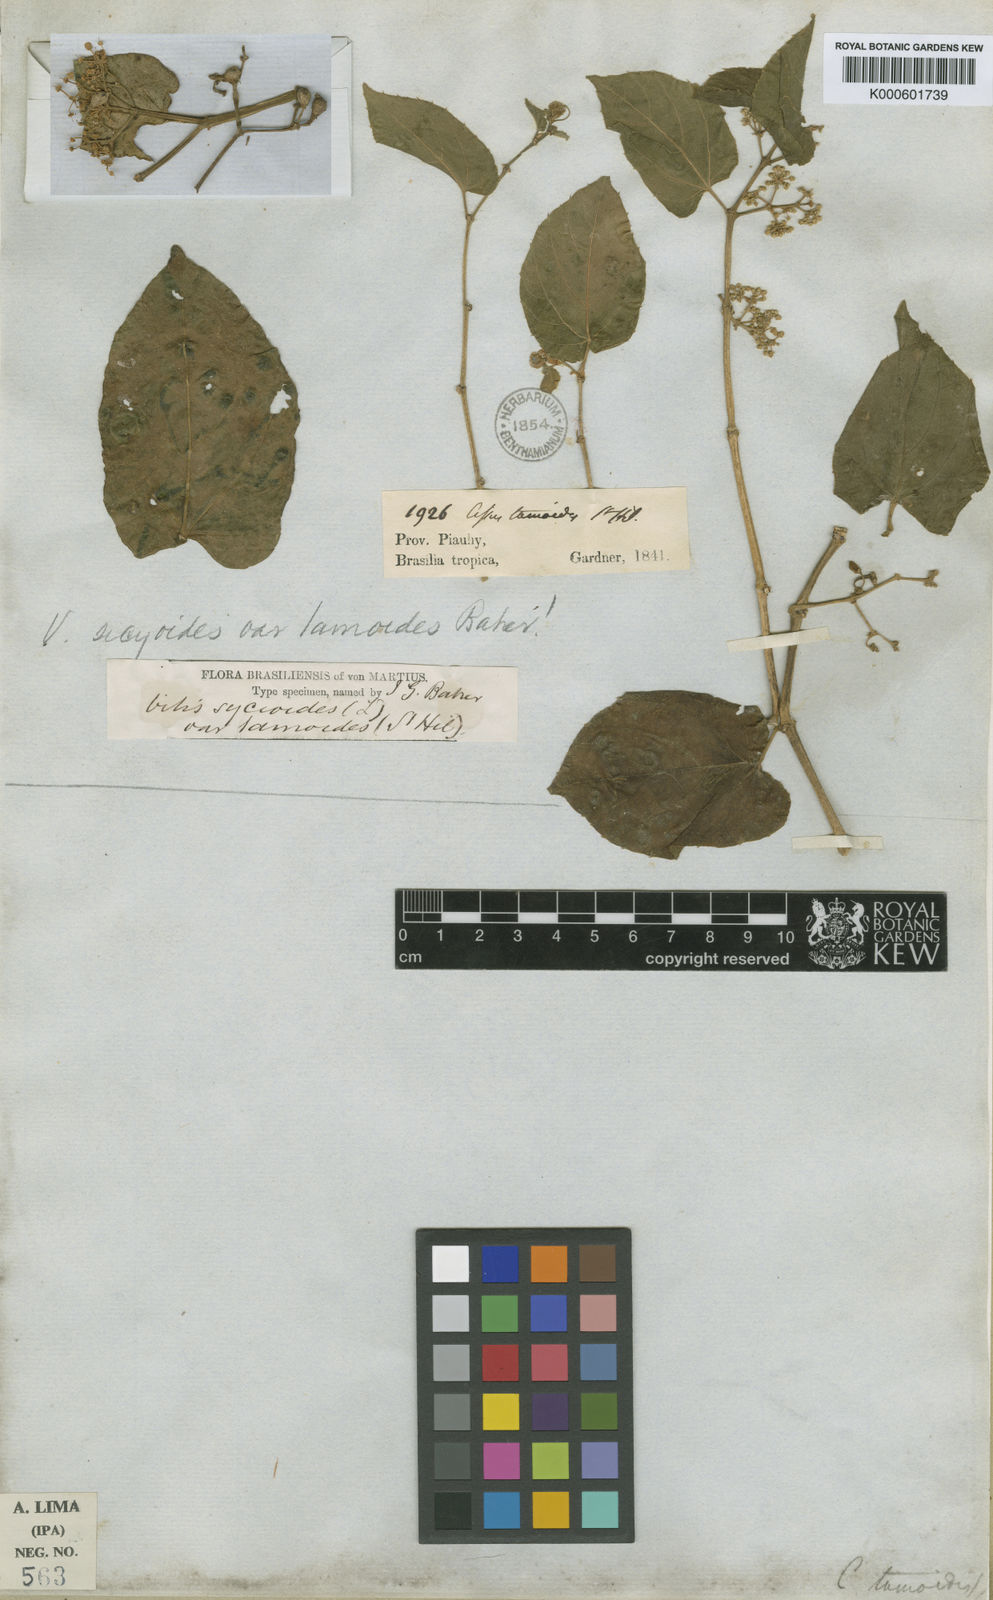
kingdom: Plantae
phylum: Tracheophyta
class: Magnoliopsida
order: Vitales
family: Vitaceae
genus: Cissus
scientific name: Cissus verticillata
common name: Princess vine
